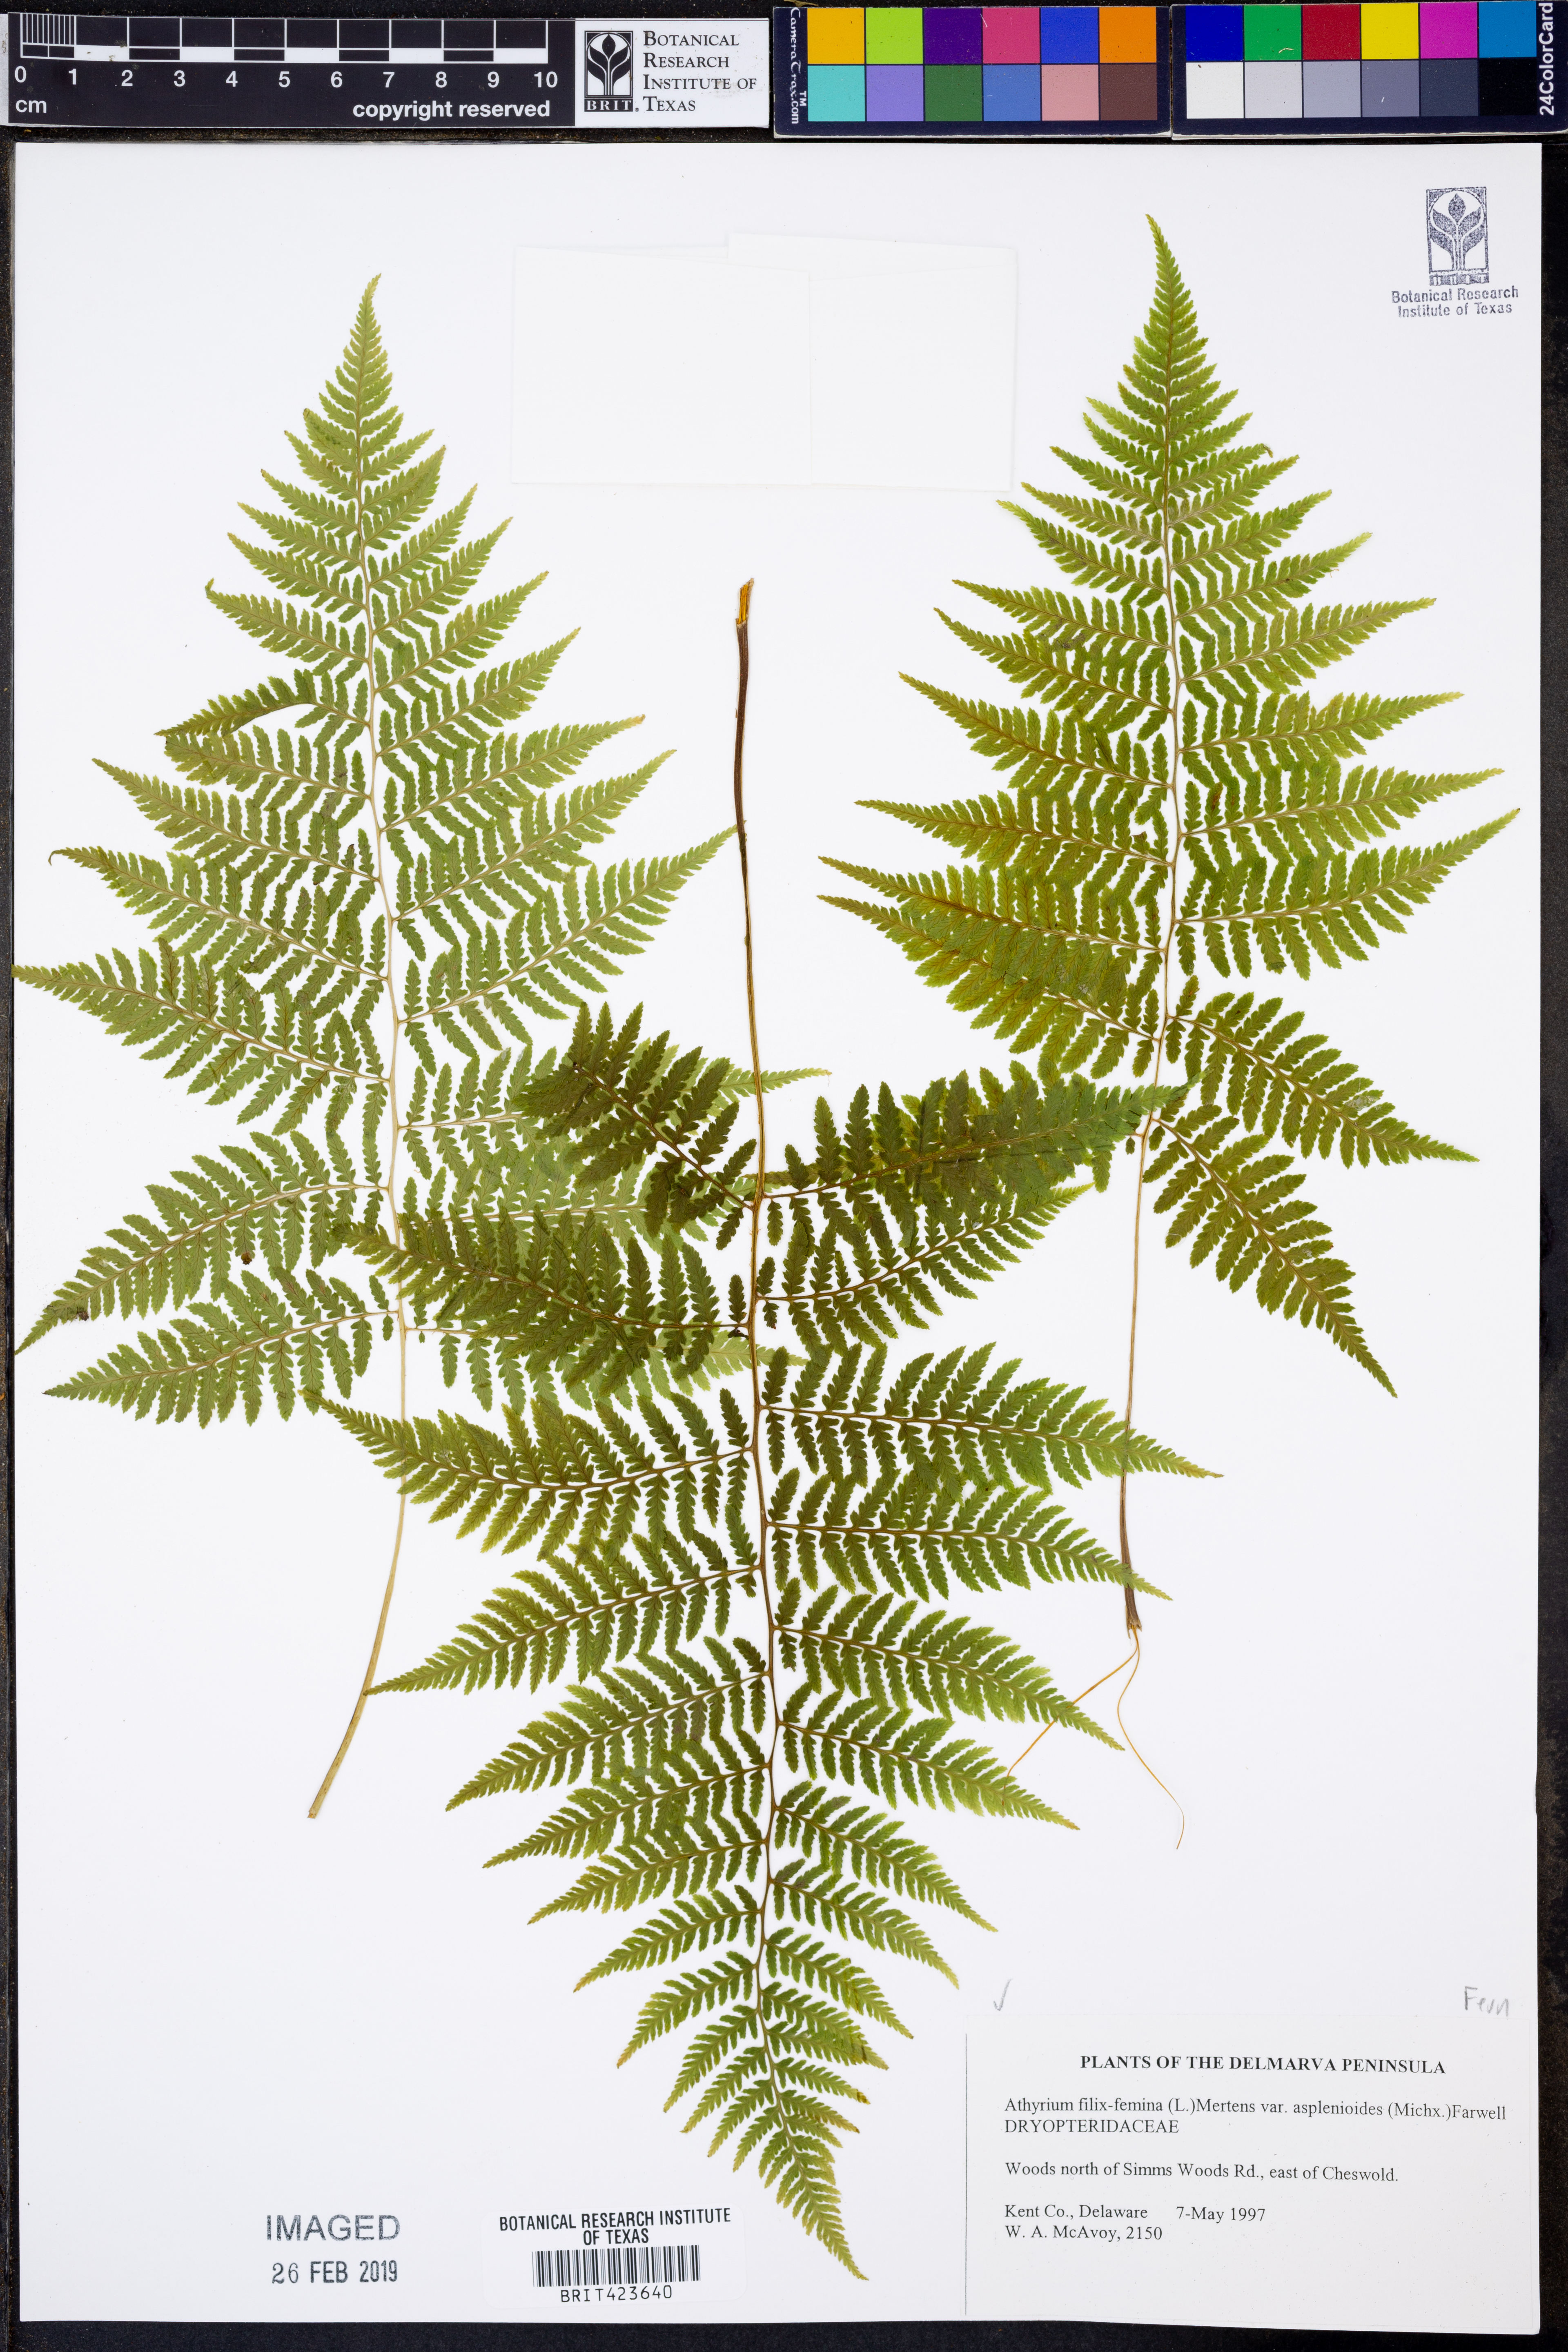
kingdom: Plantae
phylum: Tracheophyta
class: Polypodiopsida
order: Polypodiales
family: Athyriaceae
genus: Athyrium
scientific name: Athyrium asplenioides
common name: Southern lady fern
